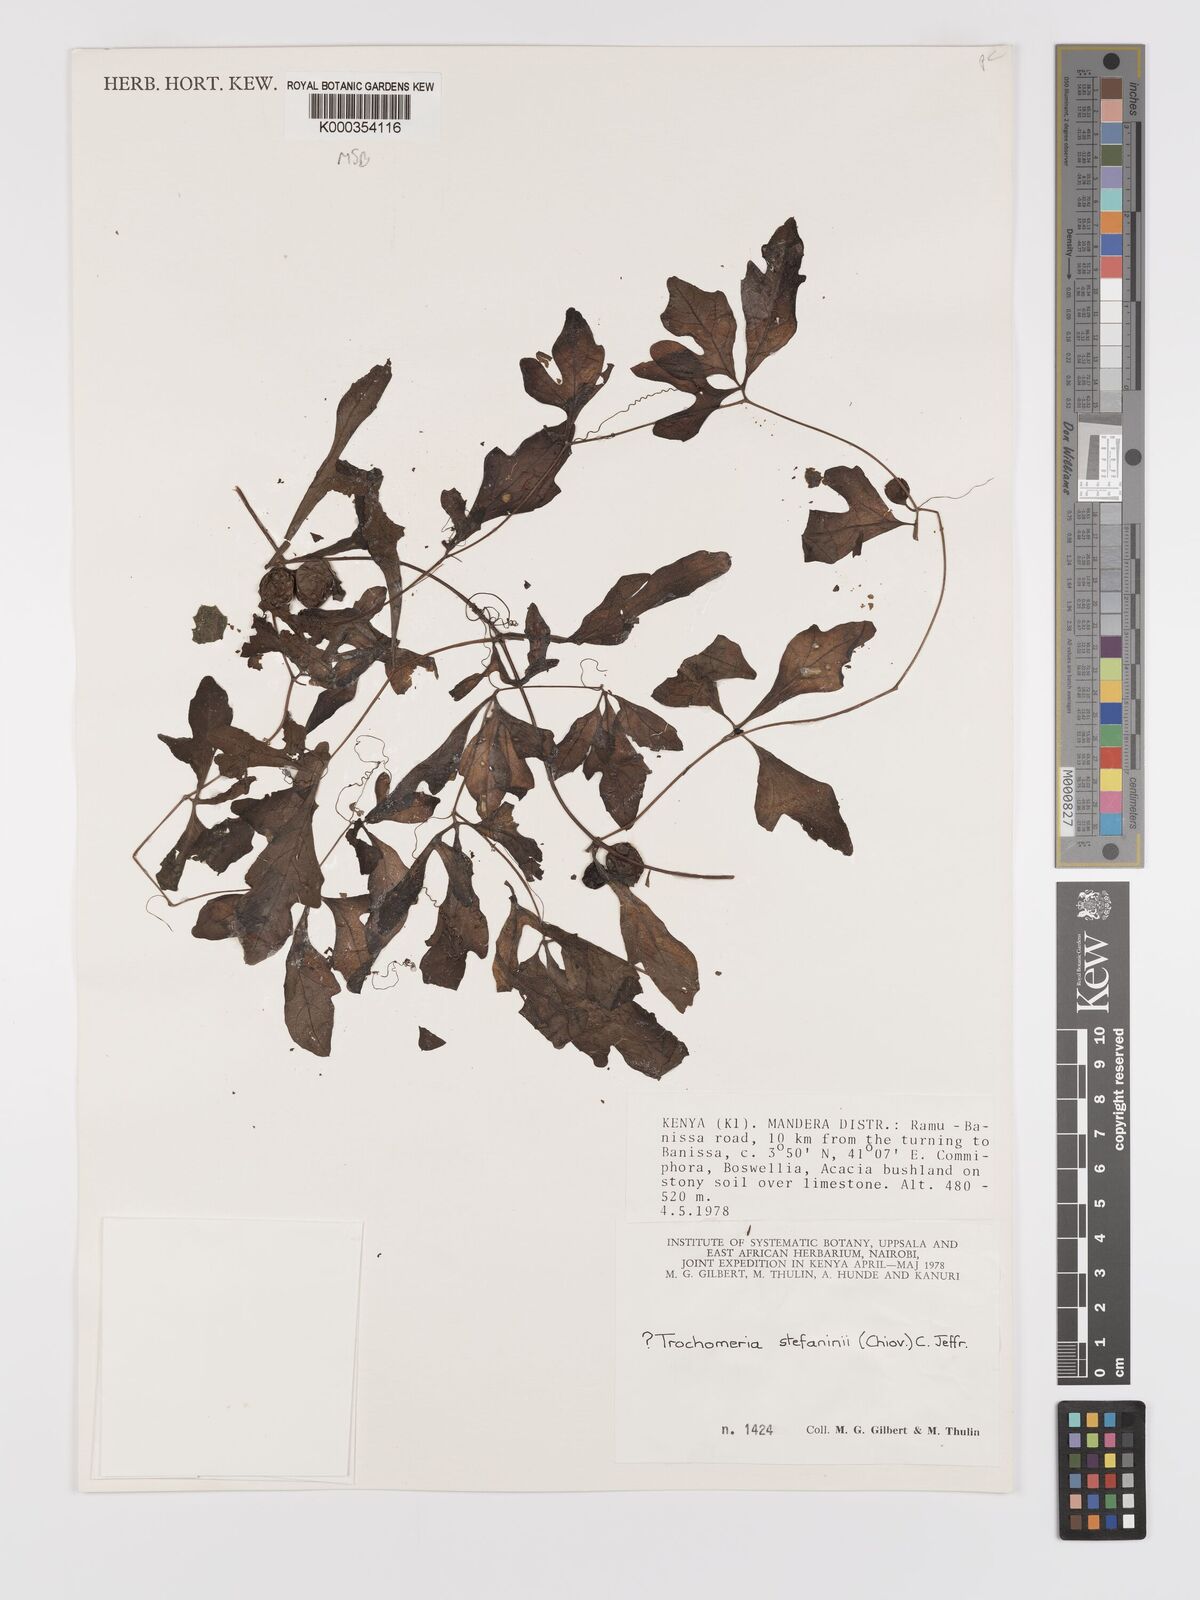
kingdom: Plantae
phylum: Tracheophyta
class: Magnoliopsida
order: Cucurbitales
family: Cucurbitaceae
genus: Dactyliandra
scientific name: Dactyliandra stefaninii
